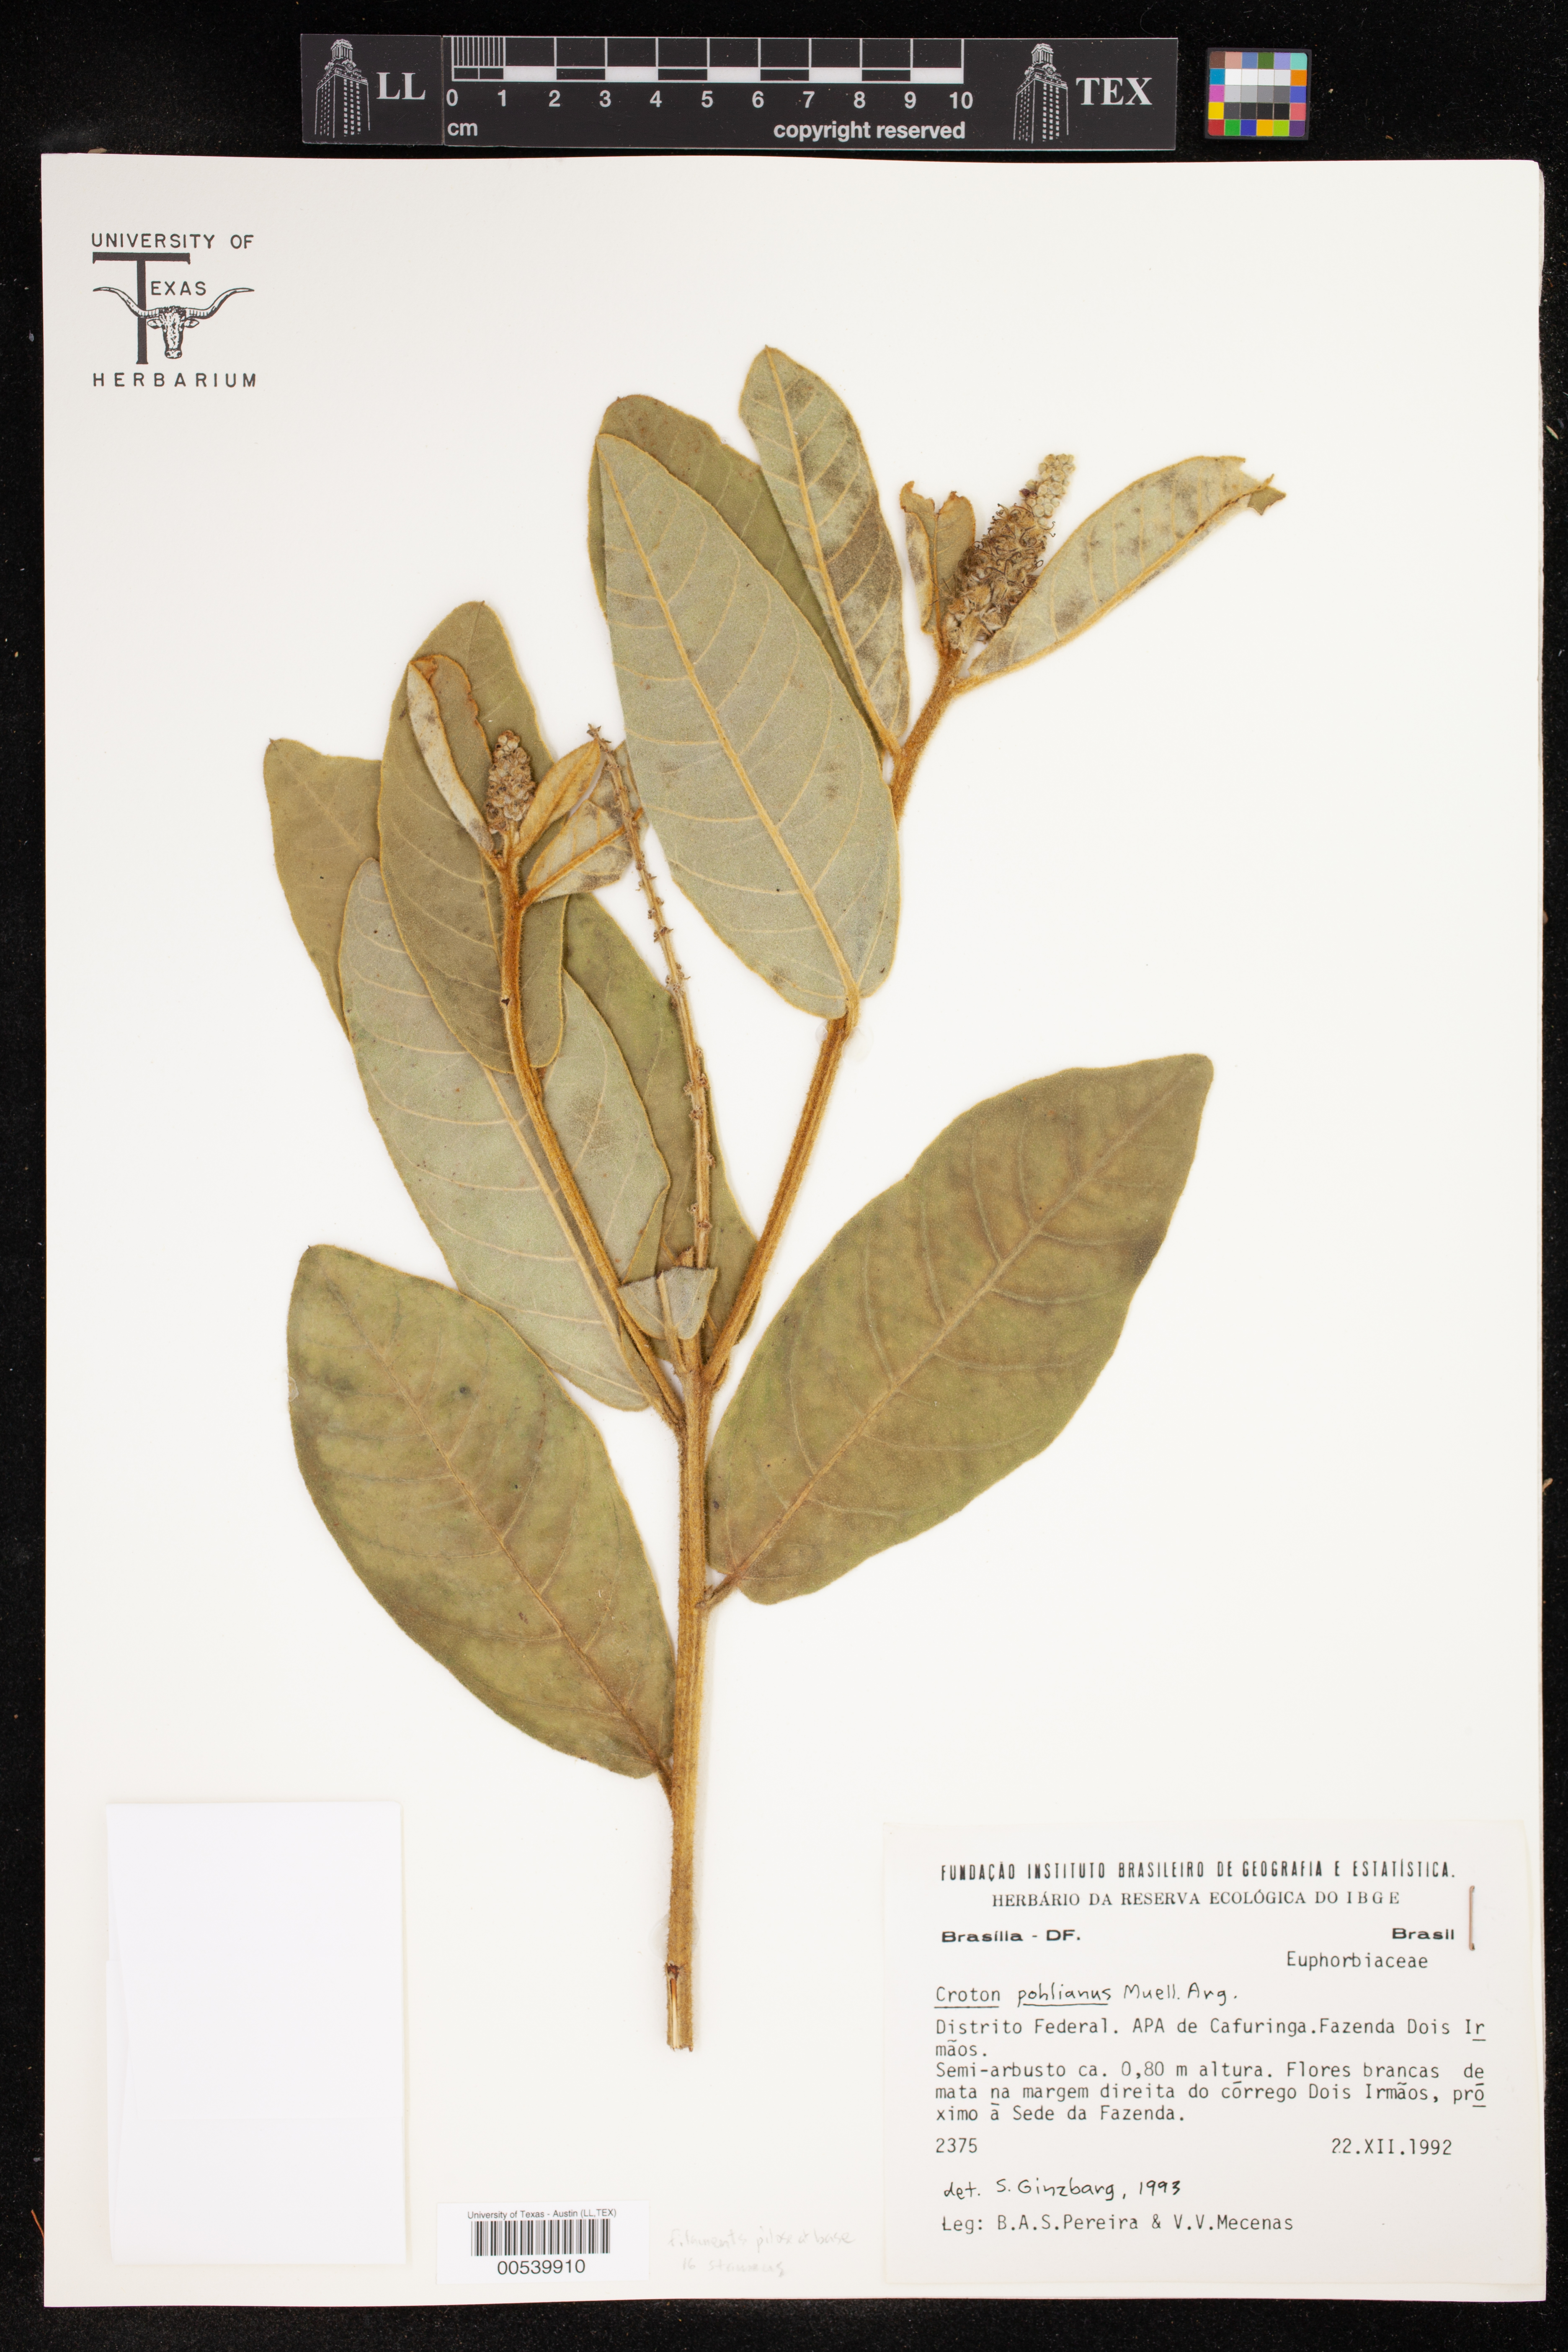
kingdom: Plantae
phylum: Tracheophyta
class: Magnoliopsida
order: Malpighiales
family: Euphorbiaceae
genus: Croton
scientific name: Croton fulvus
